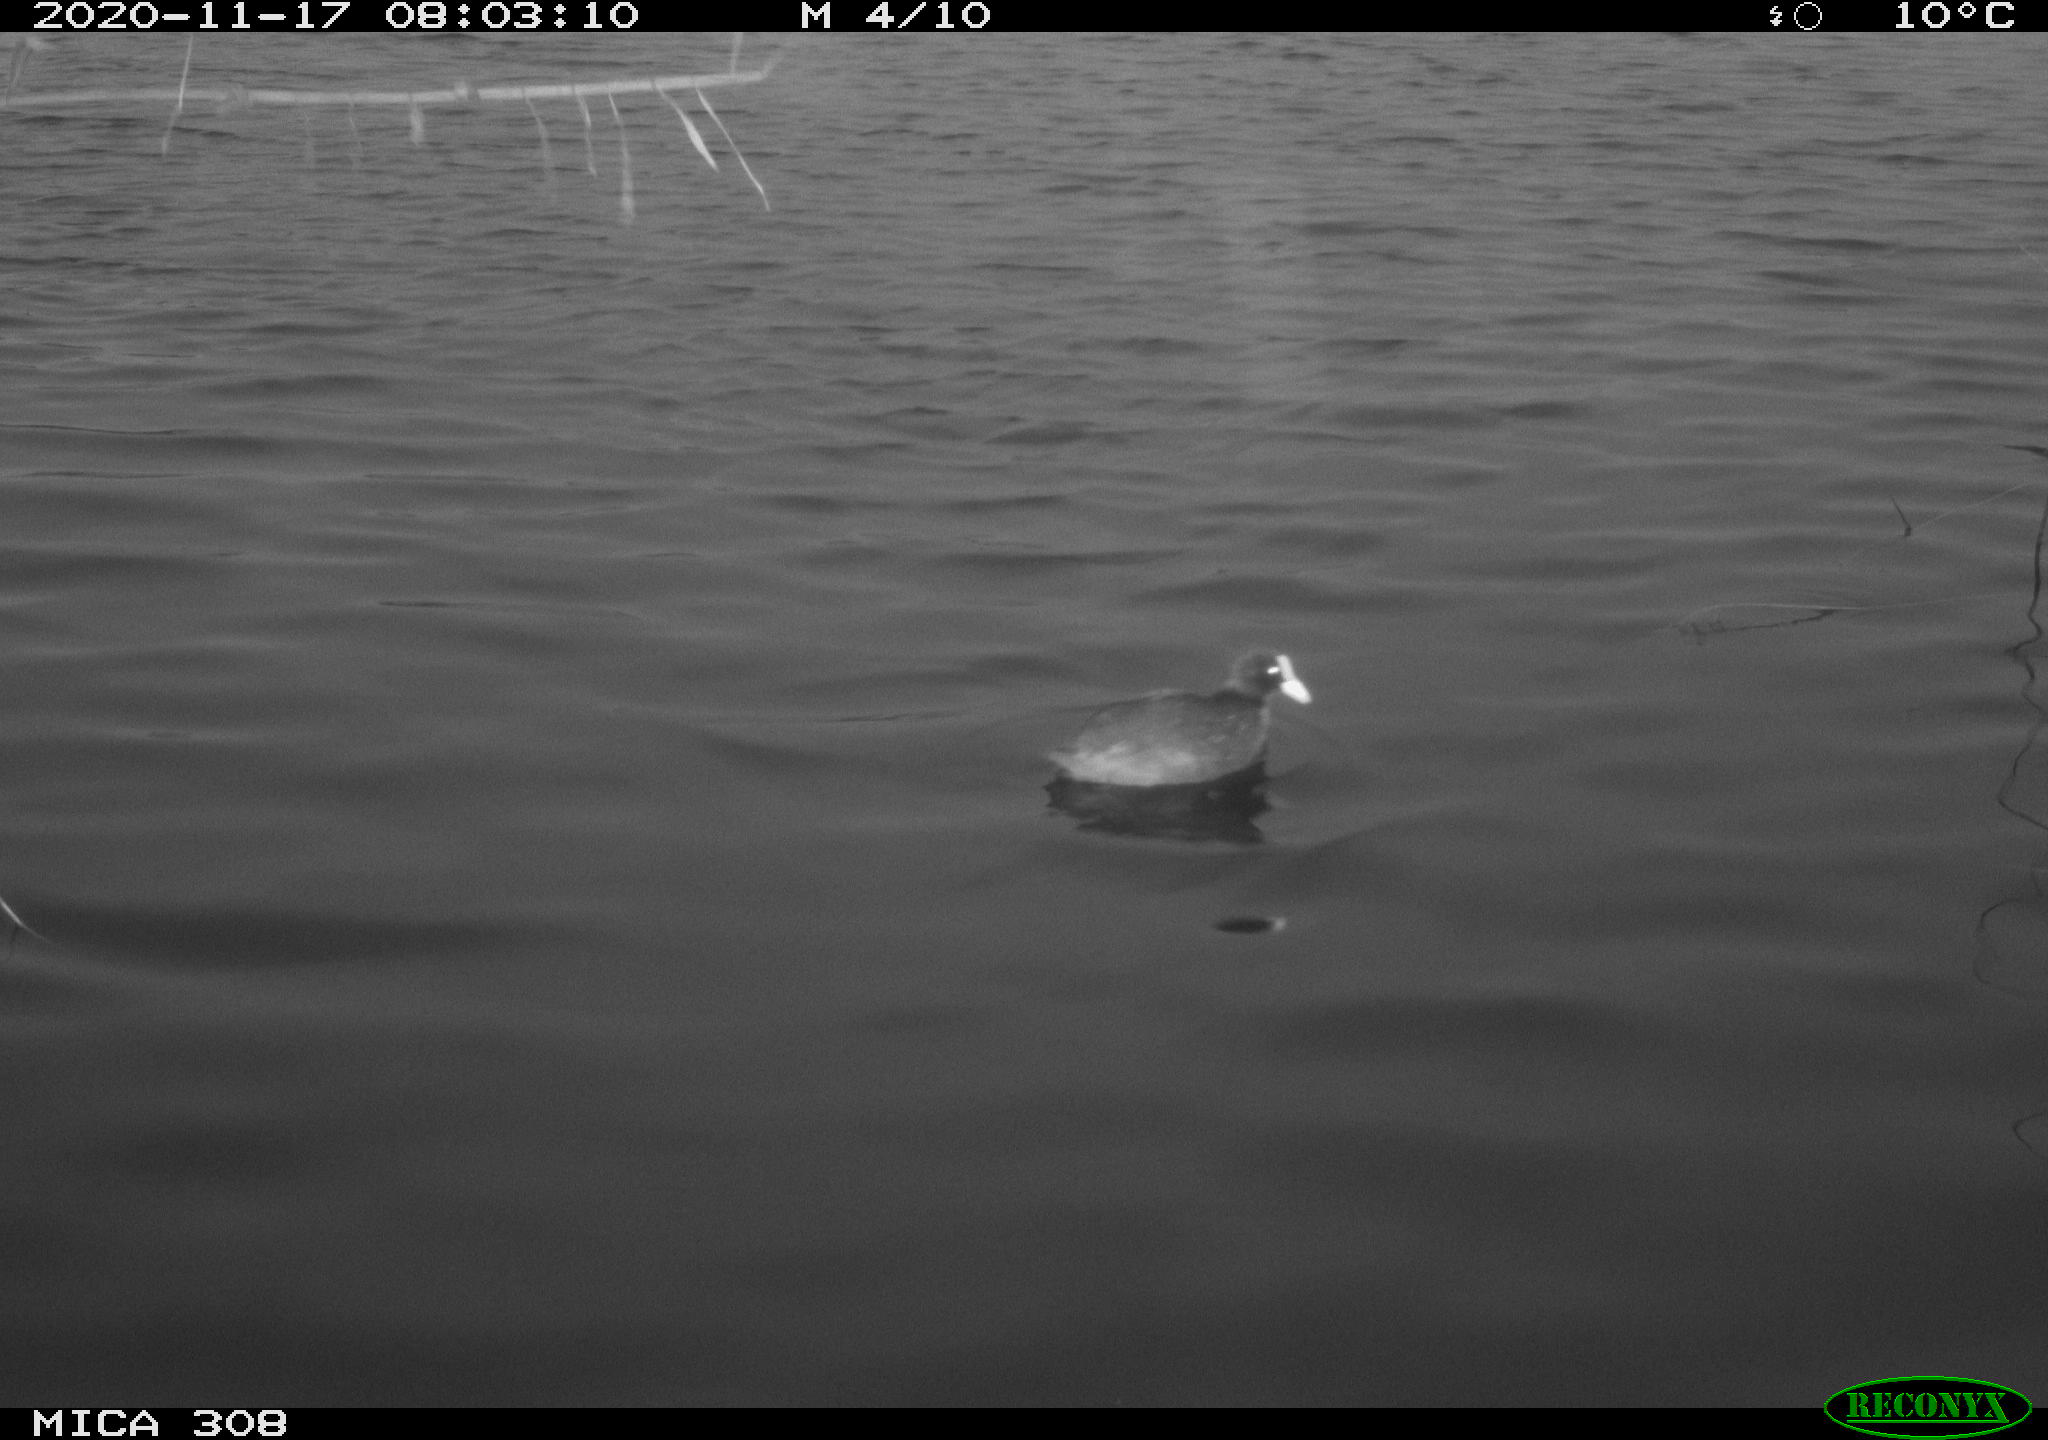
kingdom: Animalia
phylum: Chordata
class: Aves
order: Gruiformes
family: Rallidae
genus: Fulica
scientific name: Fulica atra
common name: Eurasian coot
